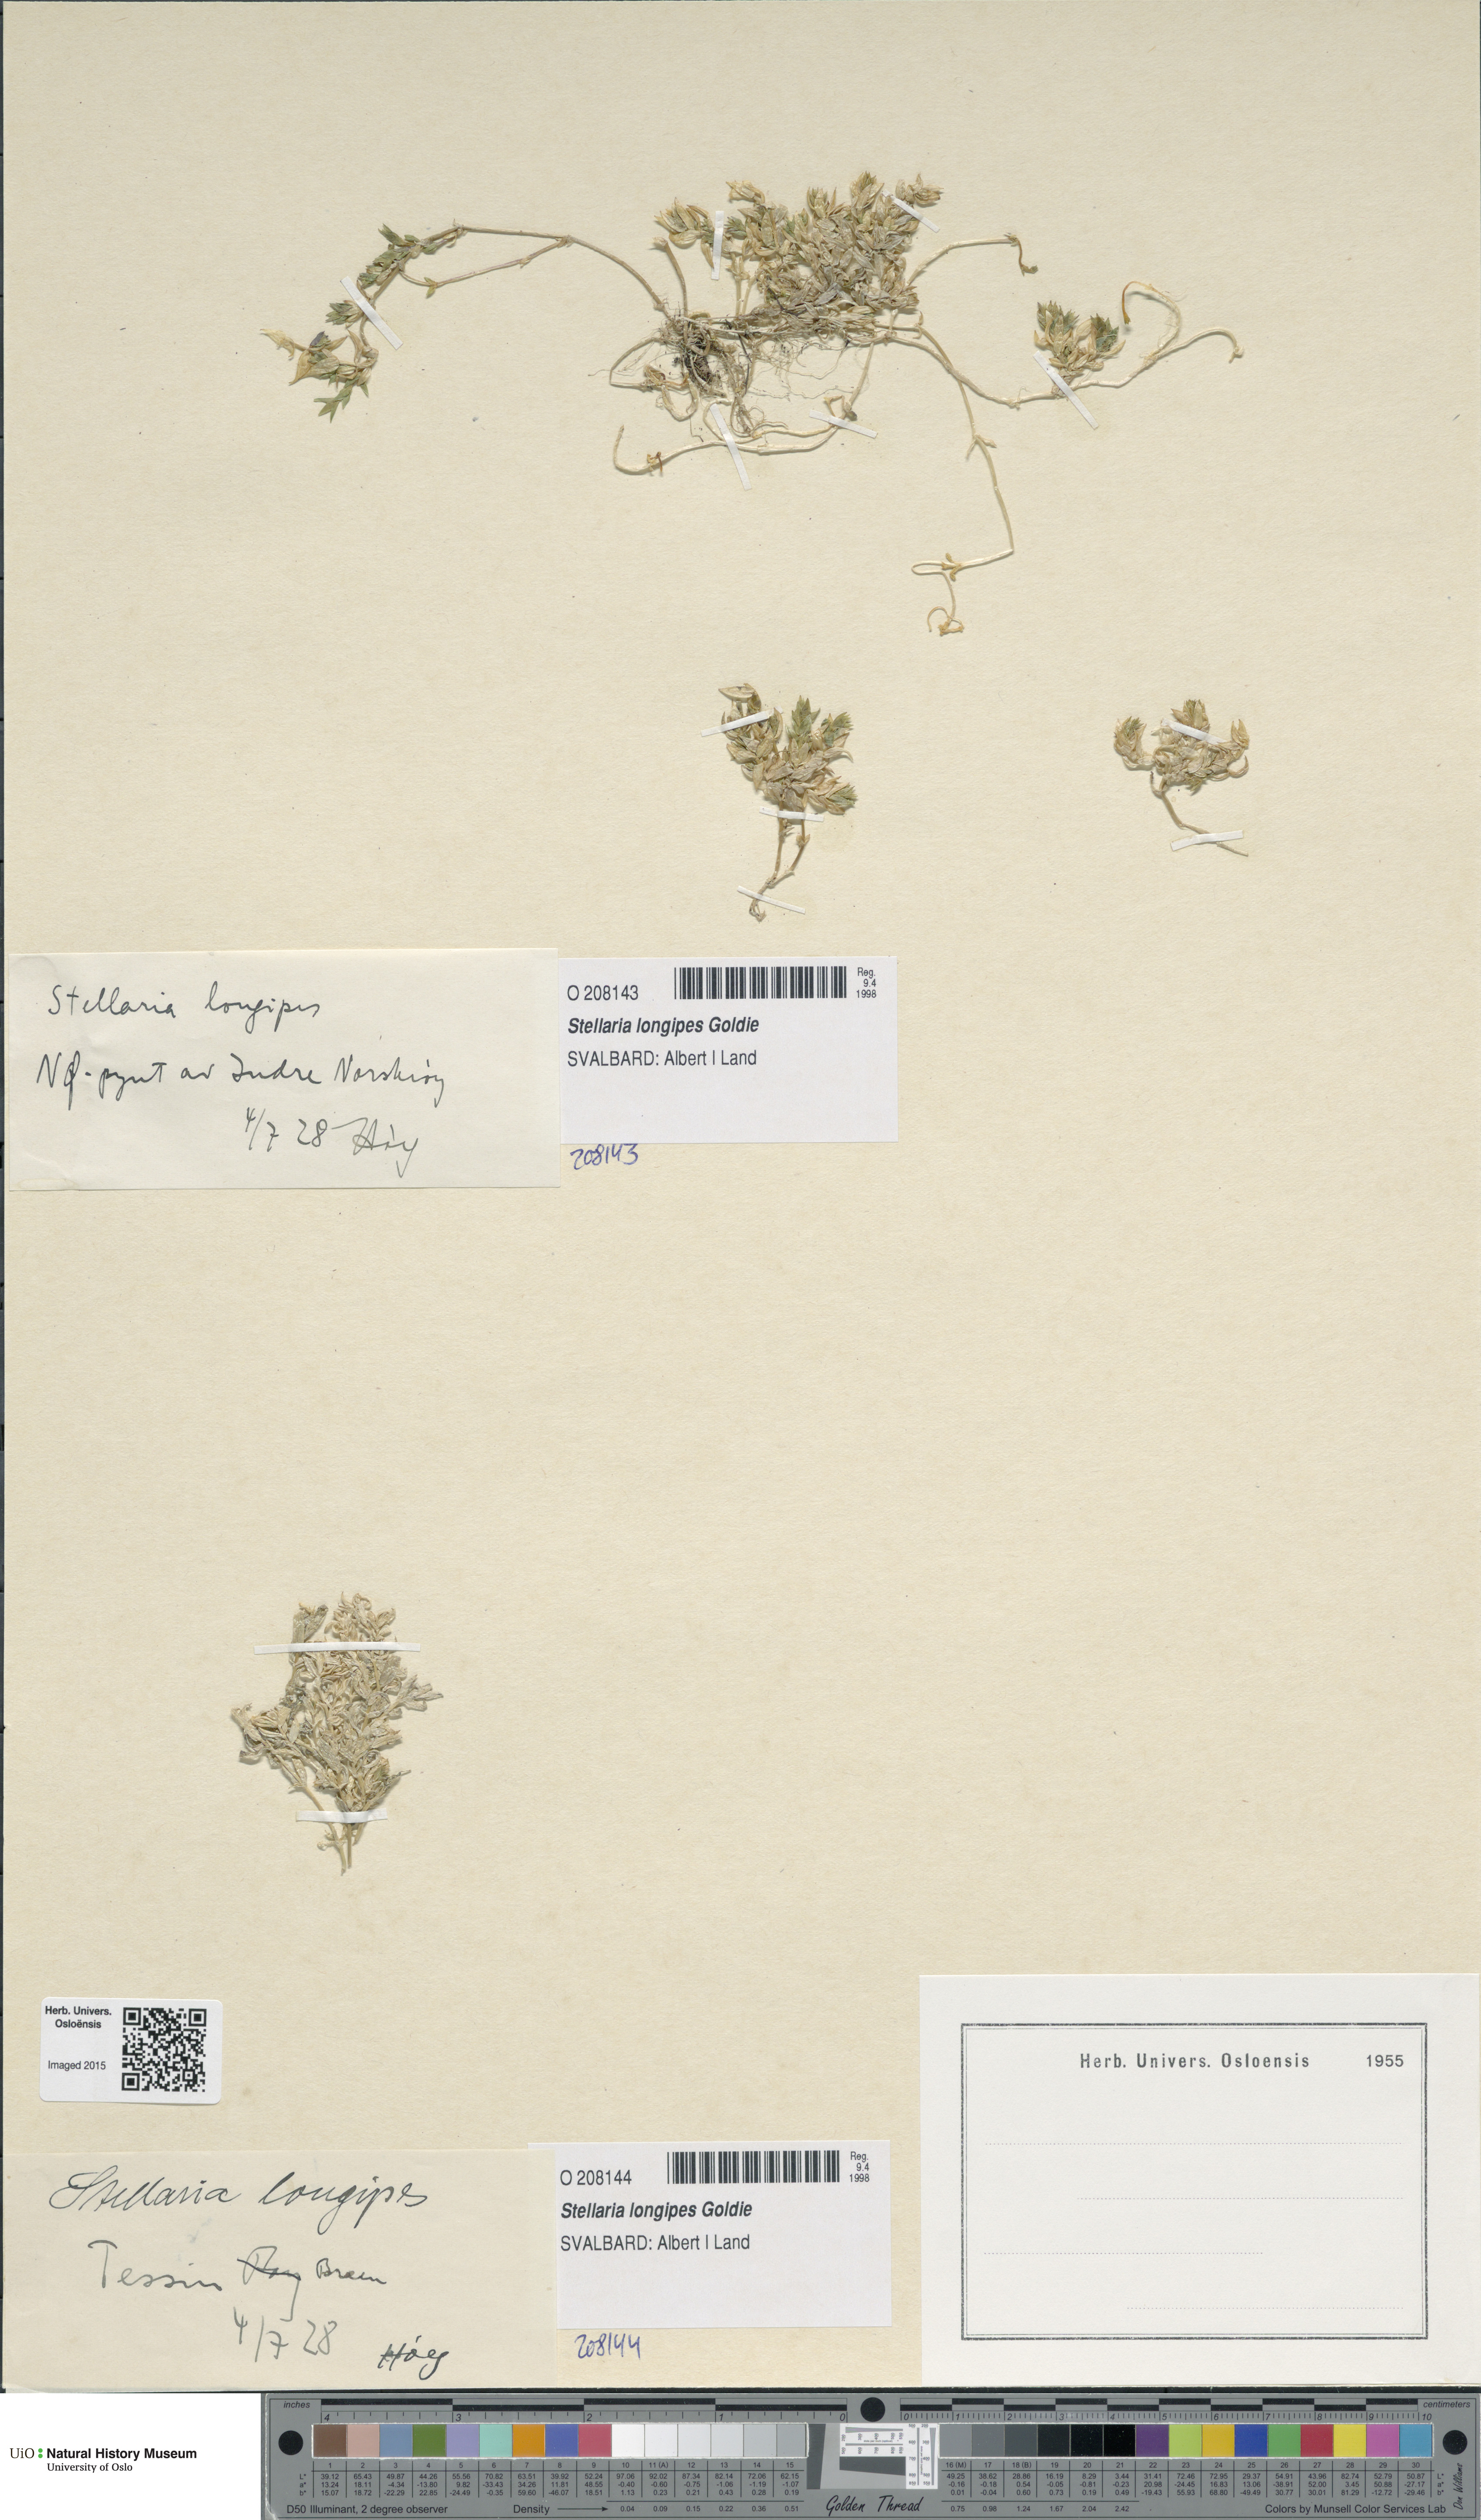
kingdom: Plantae
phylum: Tracheophyta
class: Magnoliopsida
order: Caryophyllales
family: Caryophyllaceae
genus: Stellaria
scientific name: Stellaria longipes
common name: Goldie's starwort
